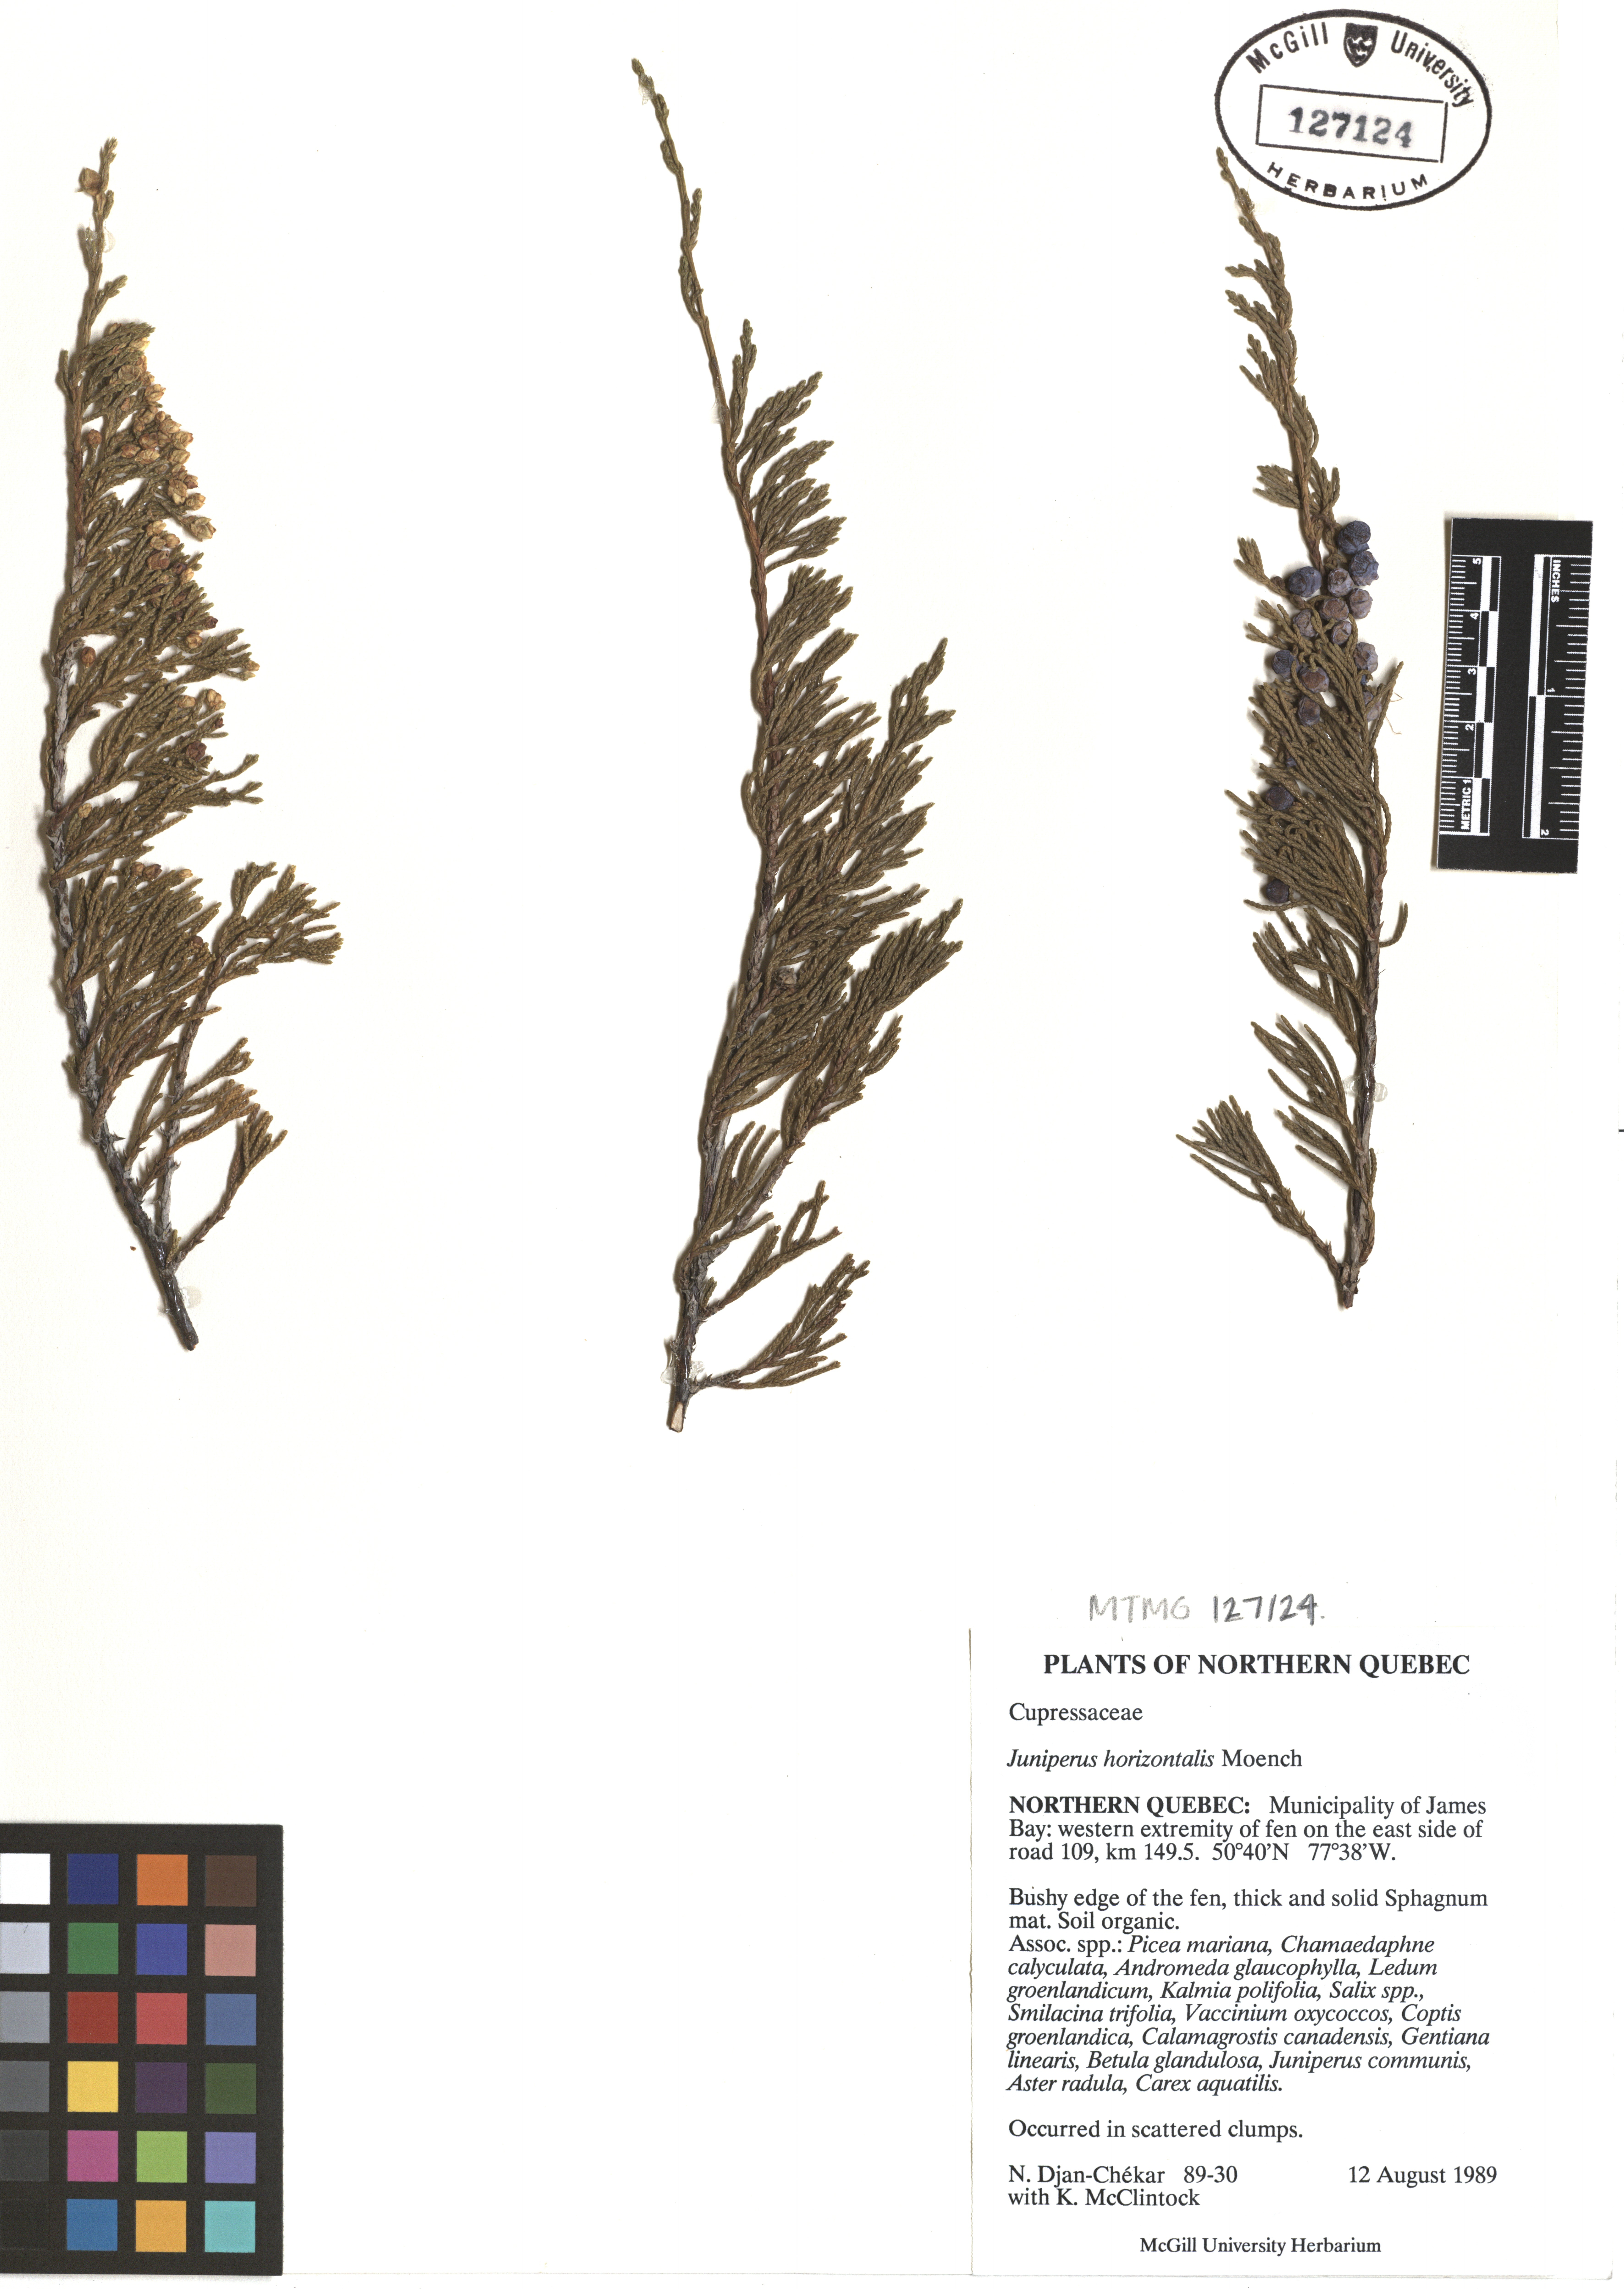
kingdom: Plantae
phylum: Tracheophyta
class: Pinopsida
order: Pinales
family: Cupressaceae
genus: Juniperus
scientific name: Juniperus horizontalis
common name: Creeping juniper
